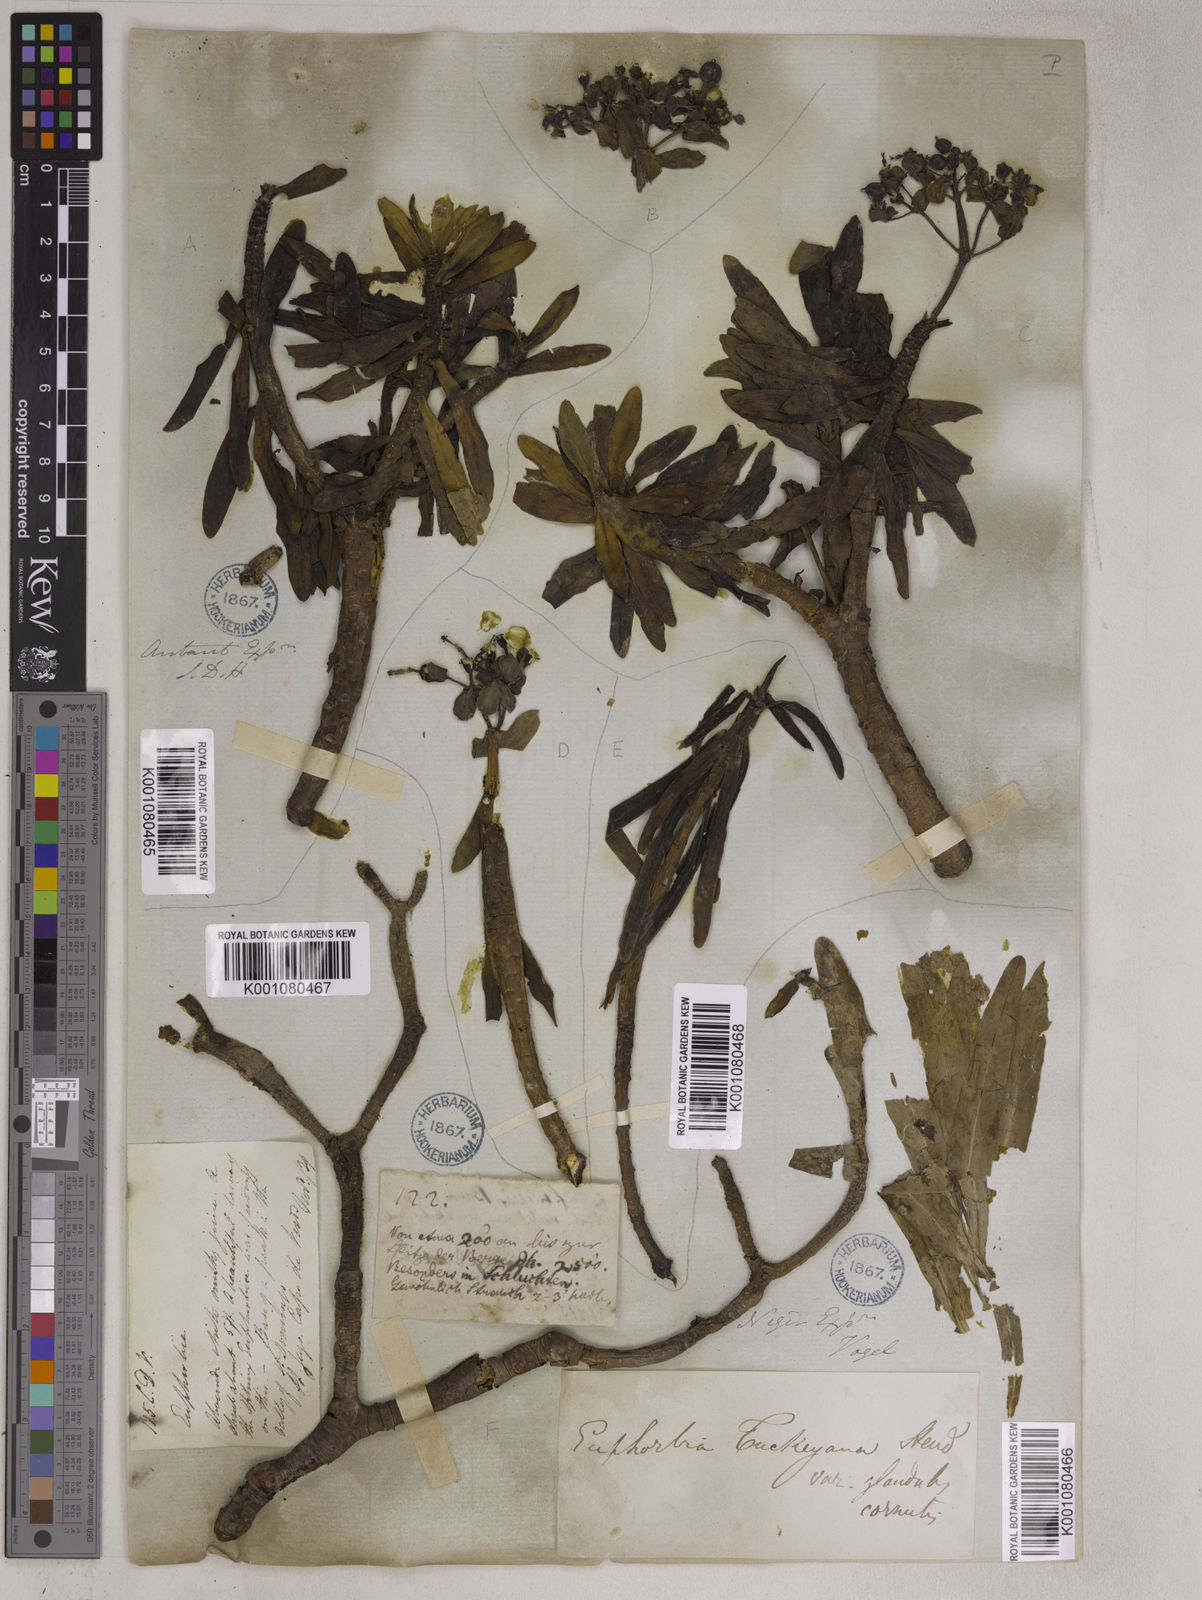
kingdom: Plantae
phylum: Tracheophyta
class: Magnoliopsida
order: Malpighiales
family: Euphorbiaceae
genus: Euphorbia
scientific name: Euphorbia
